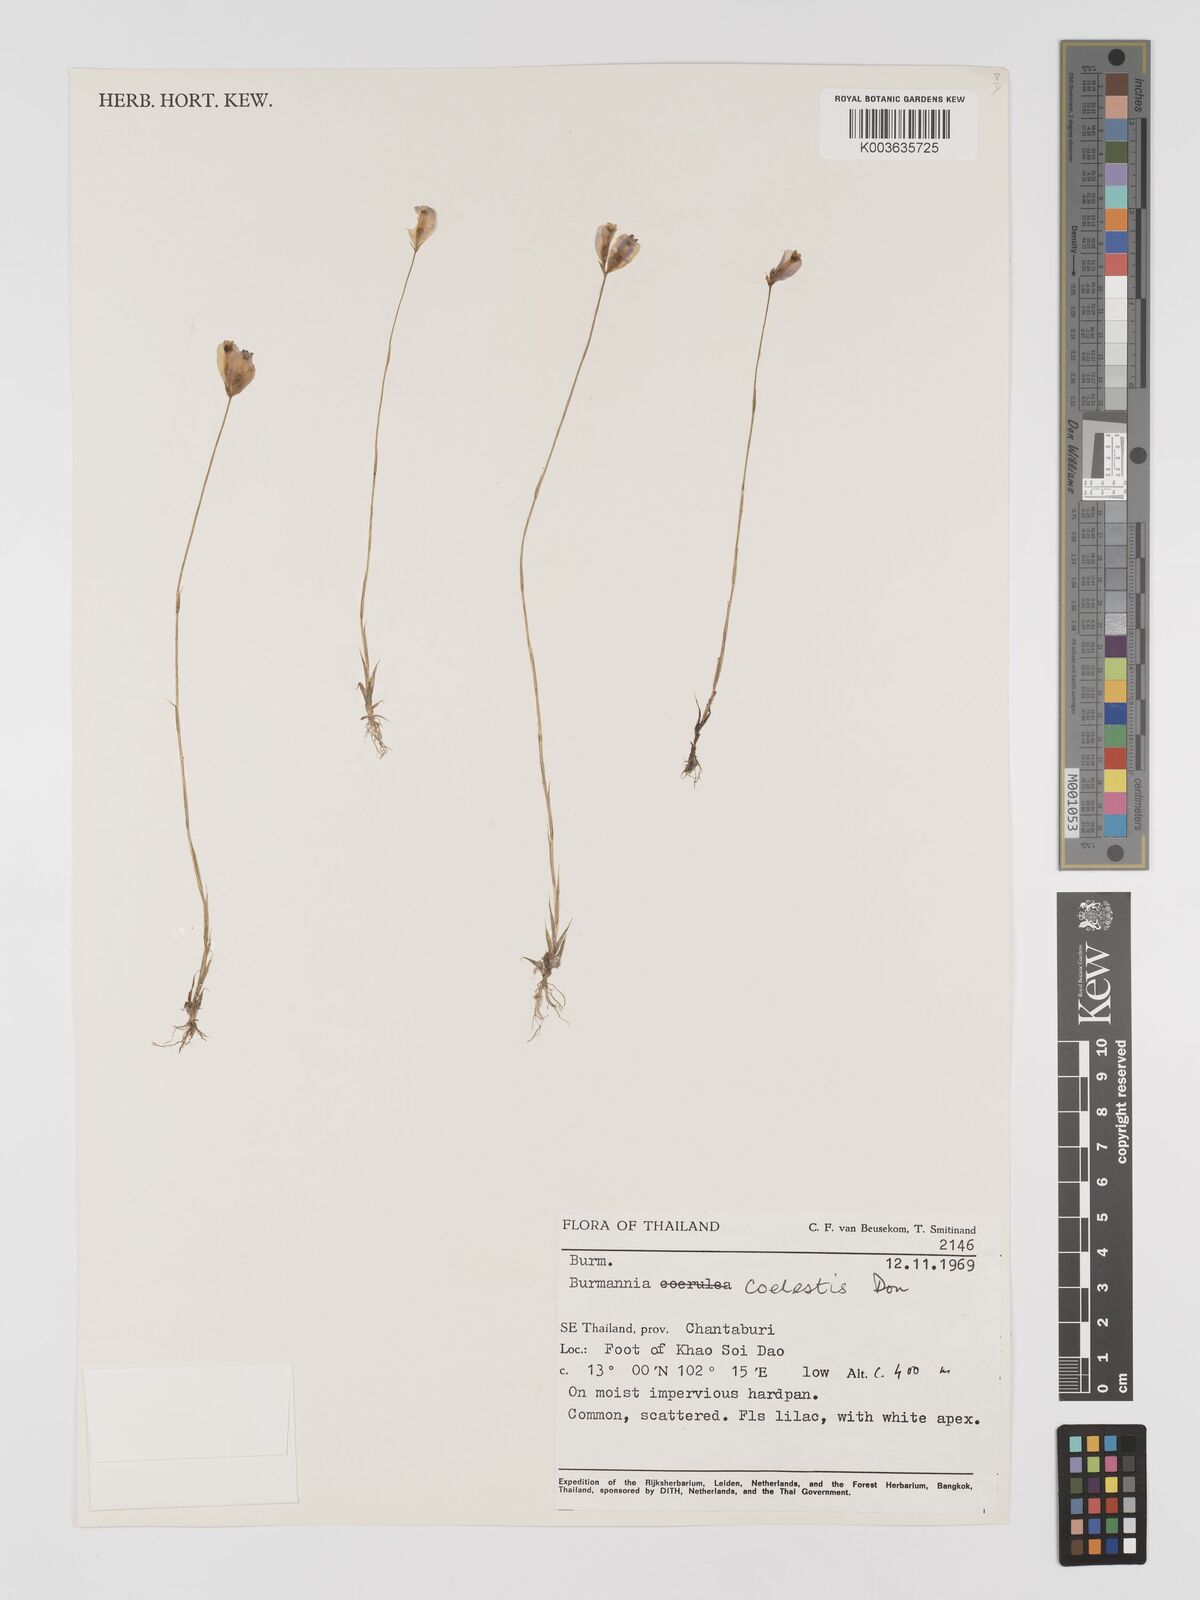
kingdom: Plantae
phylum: Tracheophyta
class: Liliopsida
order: Dioscoreales
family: Burmanniaceae
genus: Burmannia
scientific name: Burmannia coelestis
